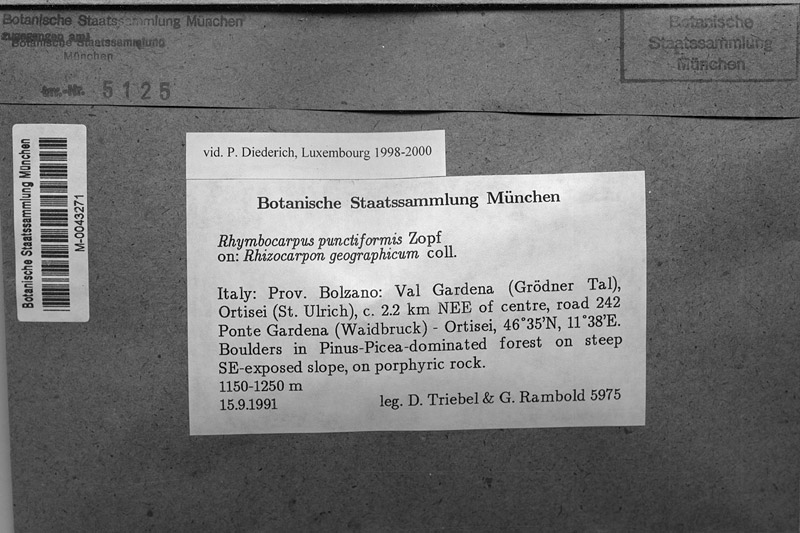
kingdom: Fungi
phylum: Ascomycota
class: Lecanoromycetes
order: Rhizocarpales
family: Rhizocarpaceae
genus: Rhizocarpon
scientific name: Rhizocarpon geographicum
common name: Yellow map lichen
